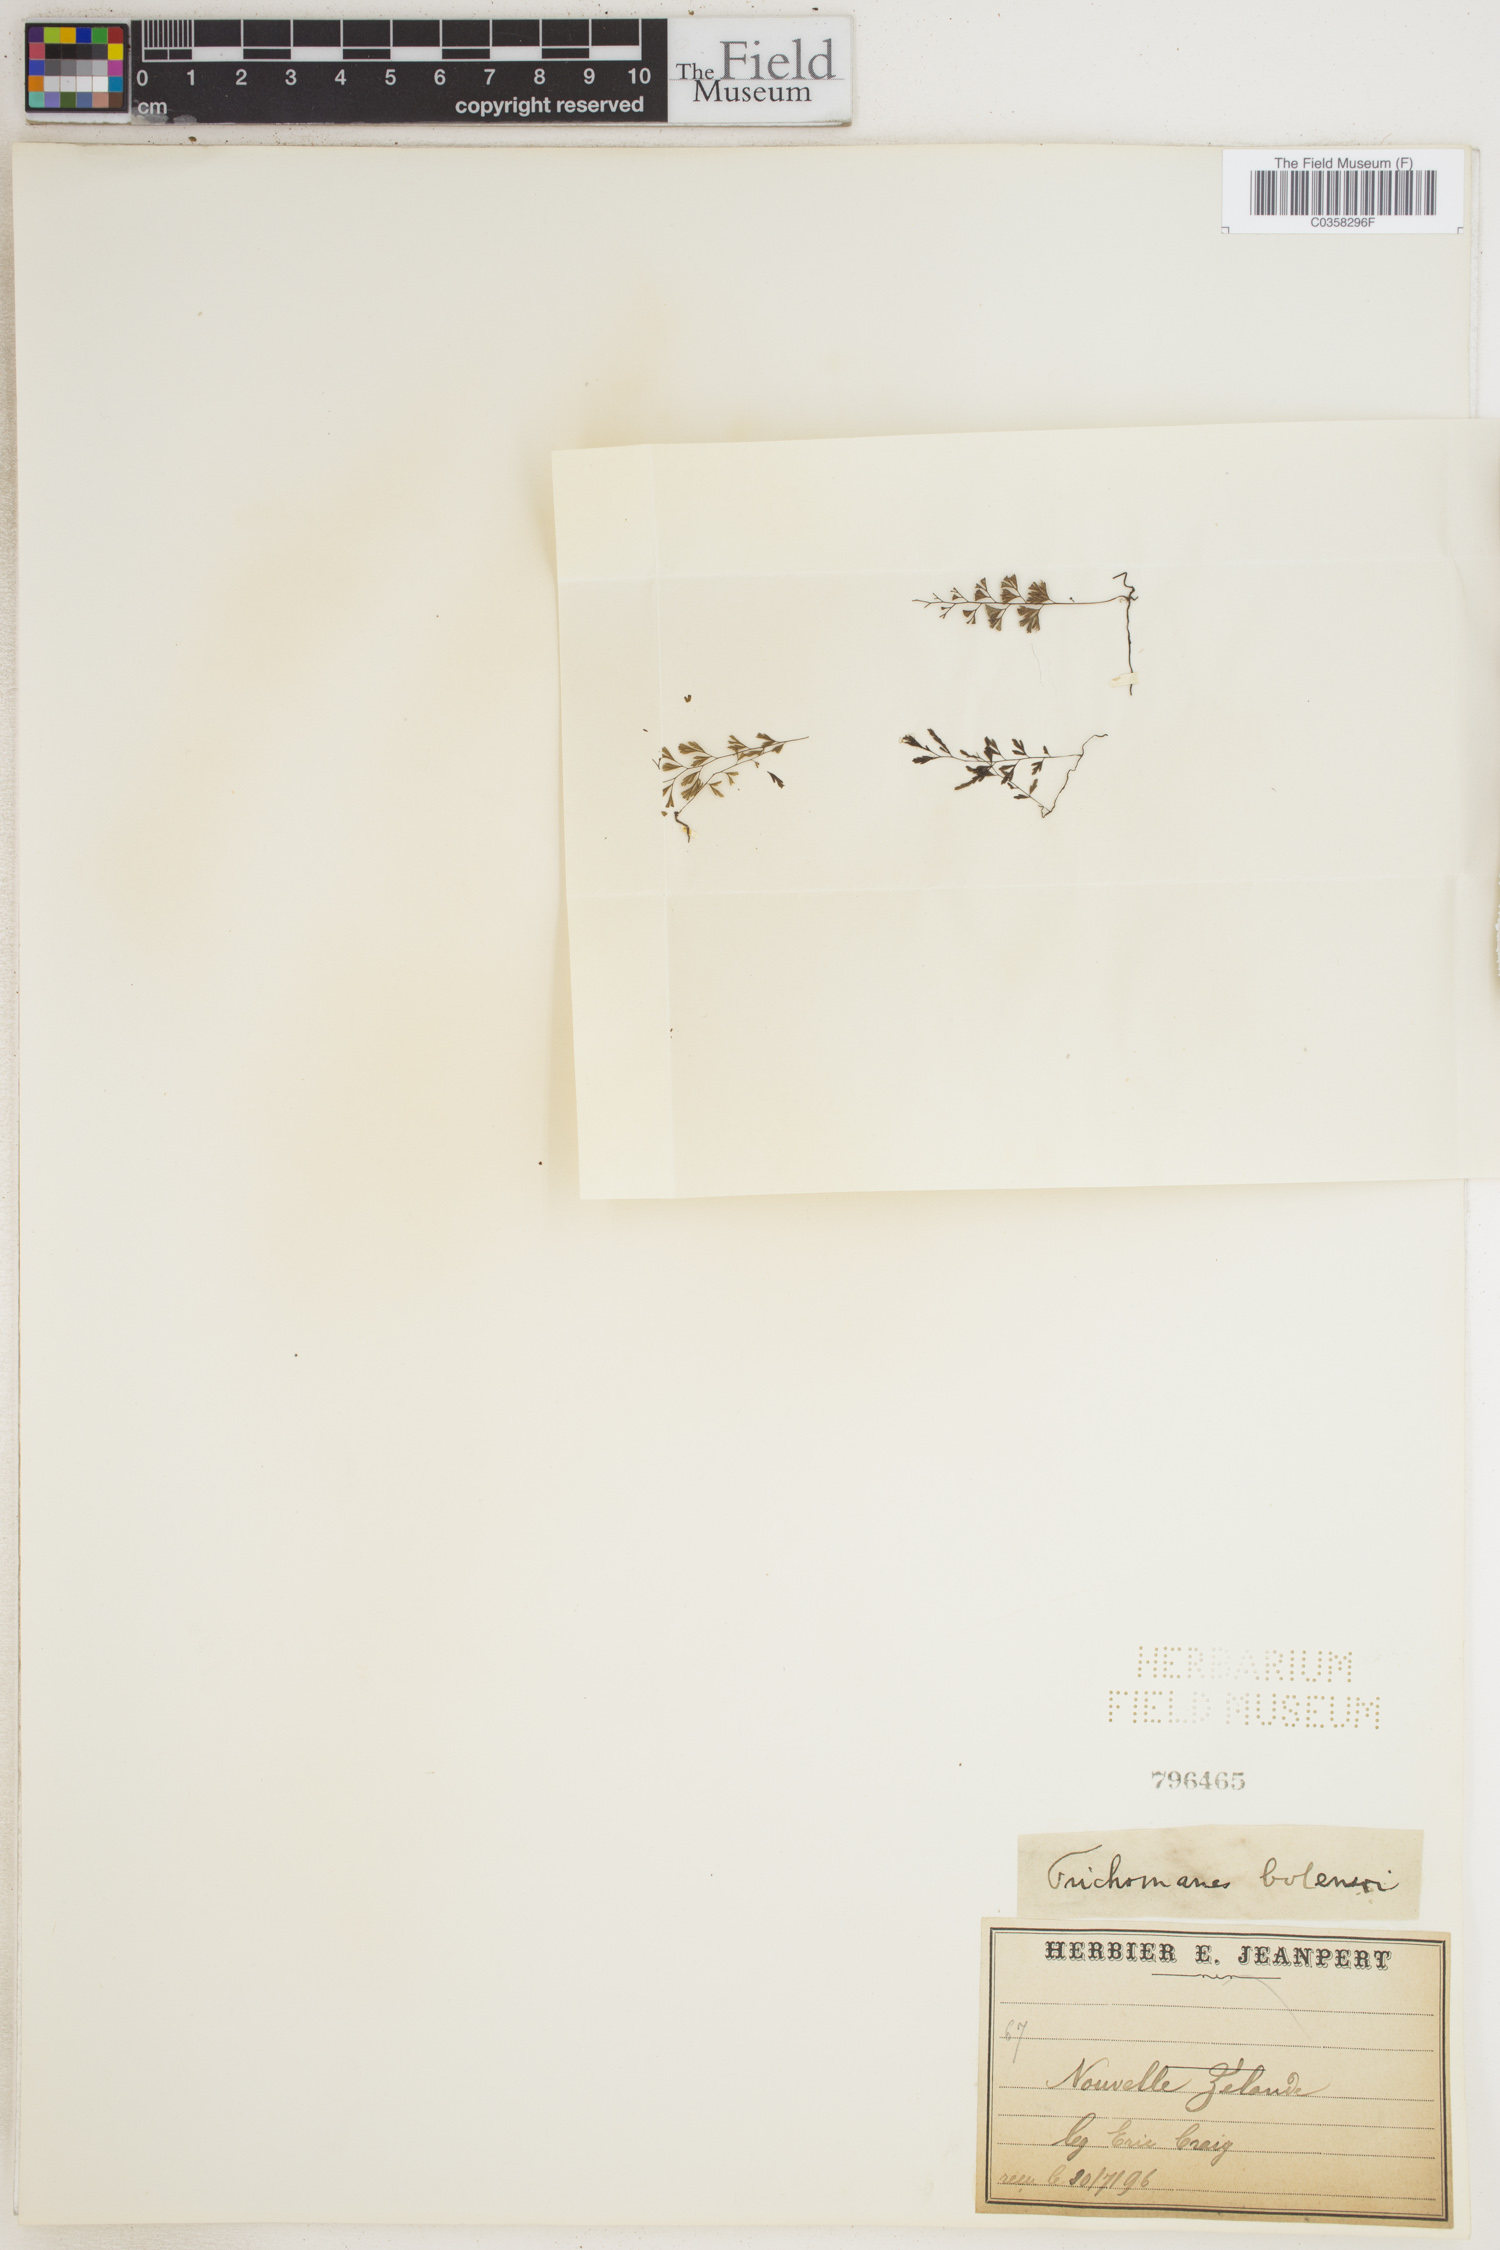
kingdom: Plantae
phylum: Tracheophyta
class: Polypodiopsida
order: Hymenophyllales
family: Hymenophyllaceae
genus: Trichomanes
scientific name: Trichomanes
